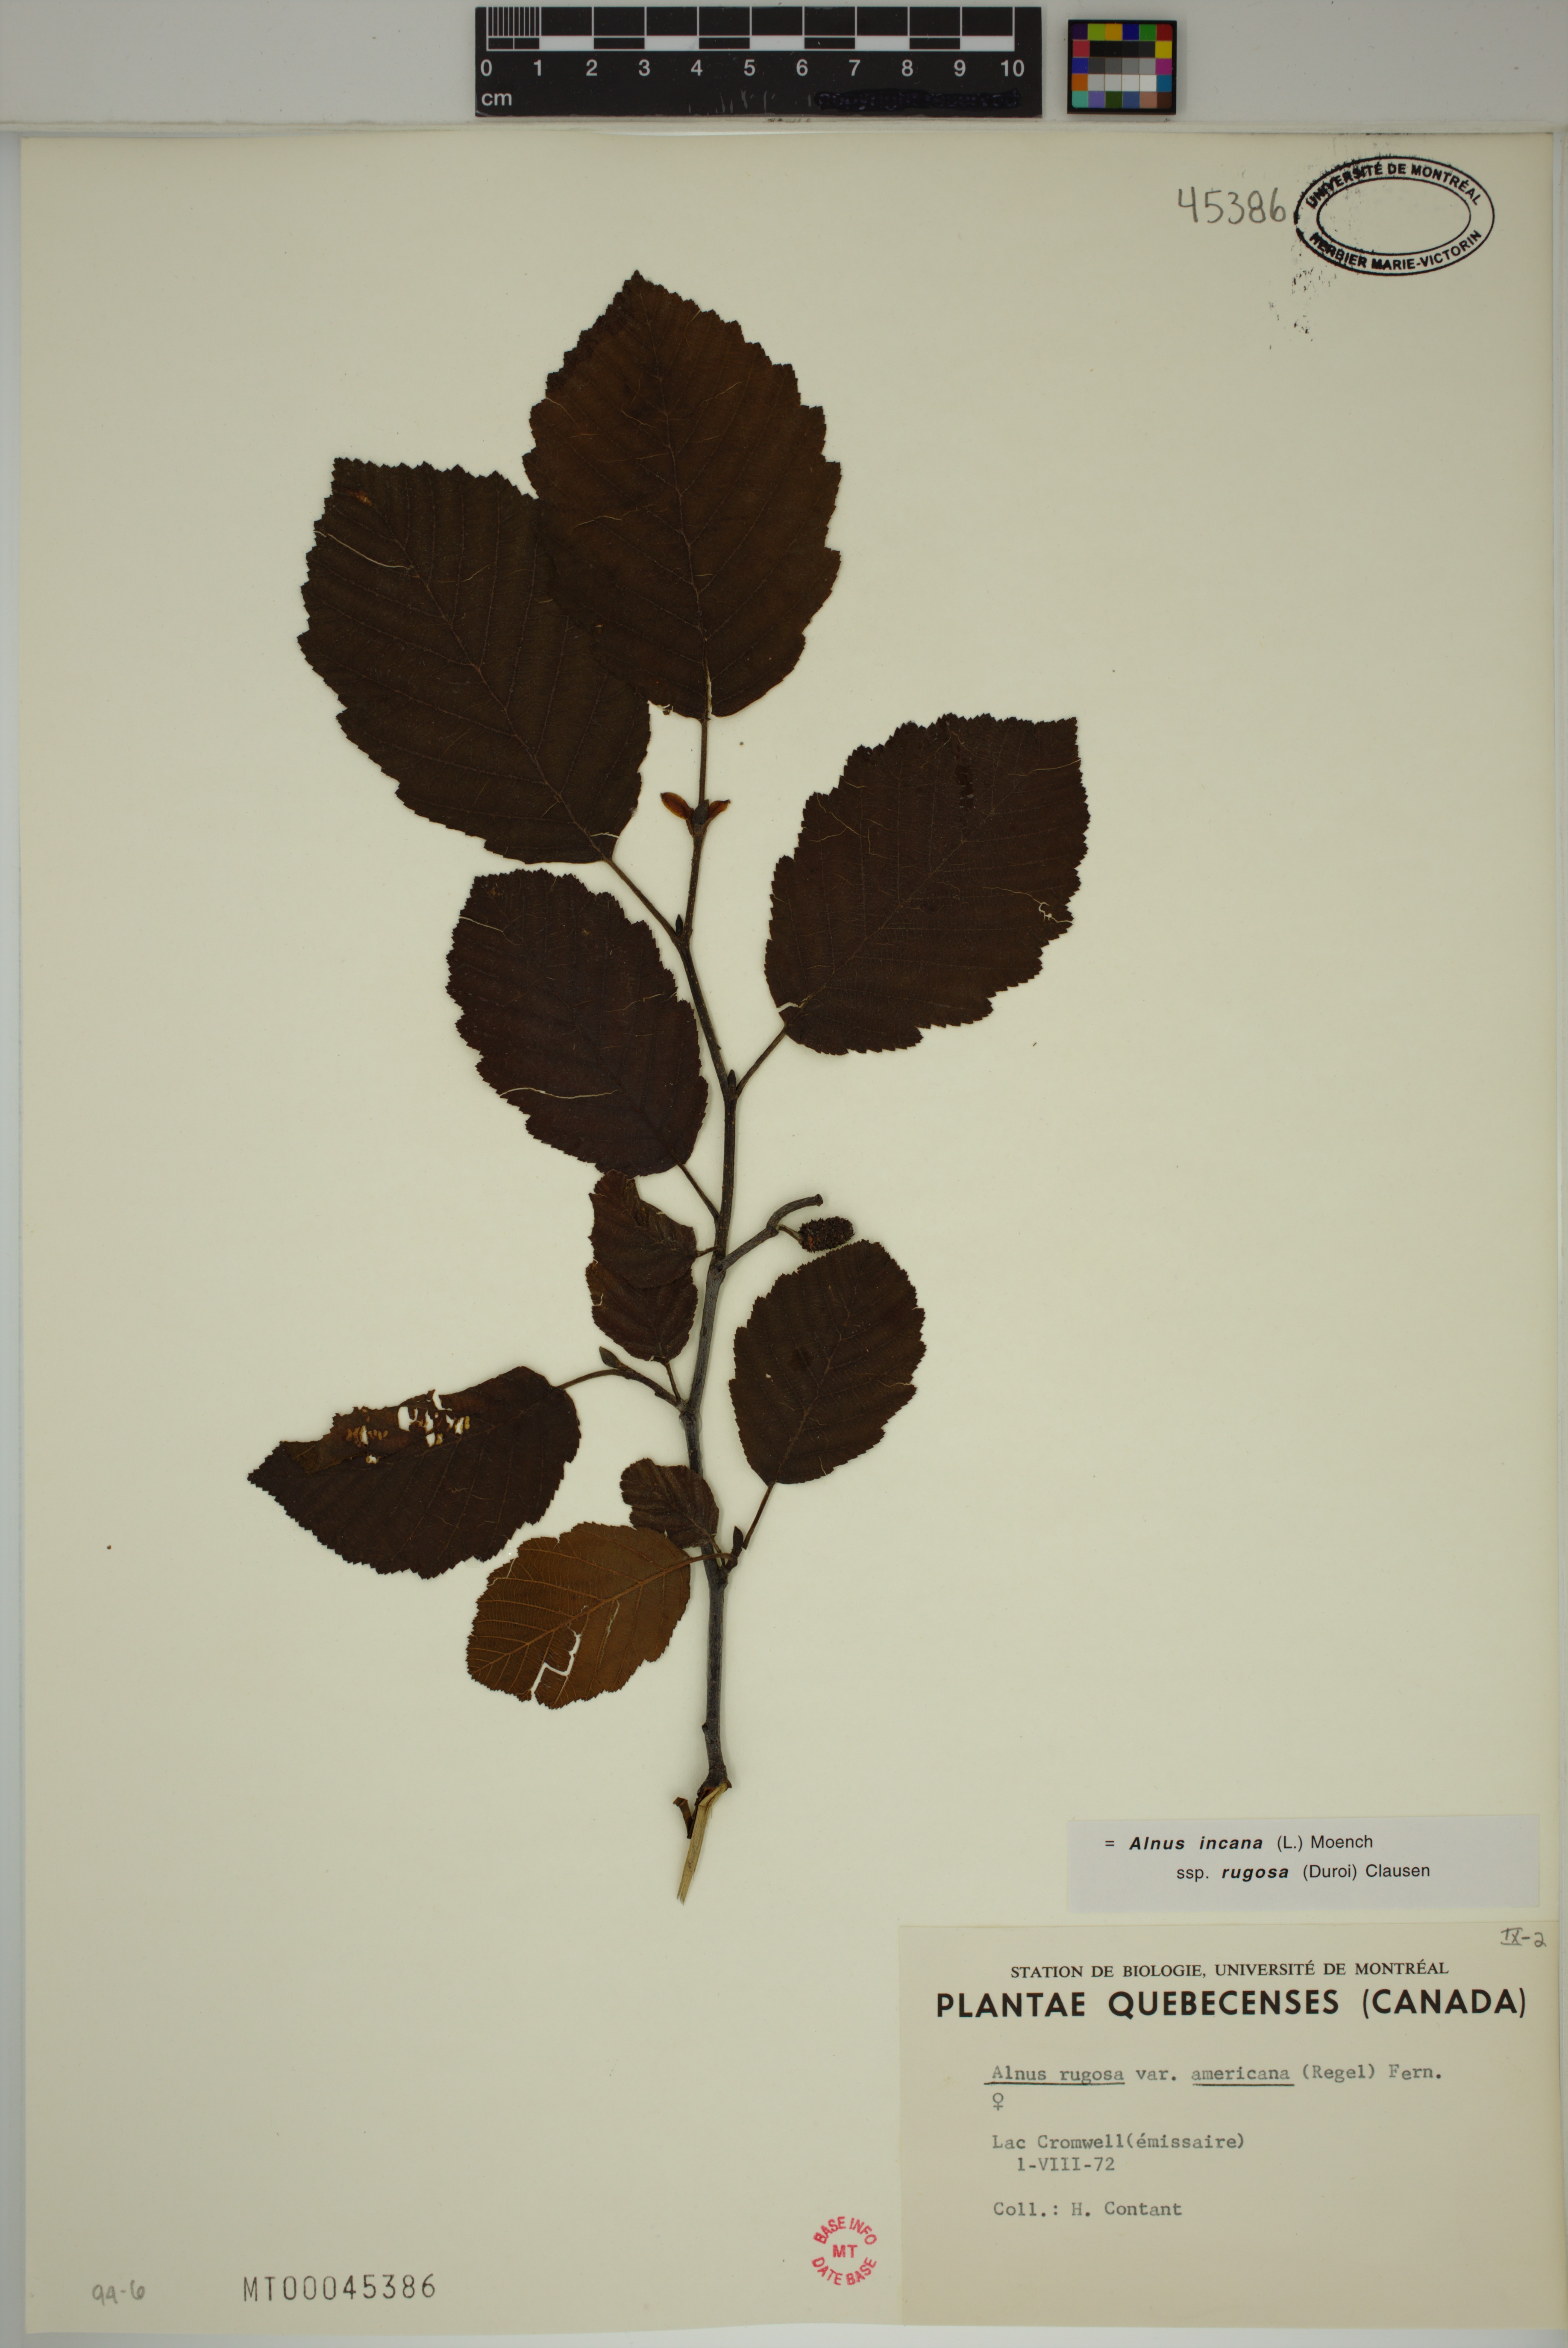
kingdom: Plantae
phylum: Tracheophyta
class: Magnoliopsida
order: Fagales
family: Betulaceae
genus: Alnus
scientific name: Alnus incana
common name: Grey alder
